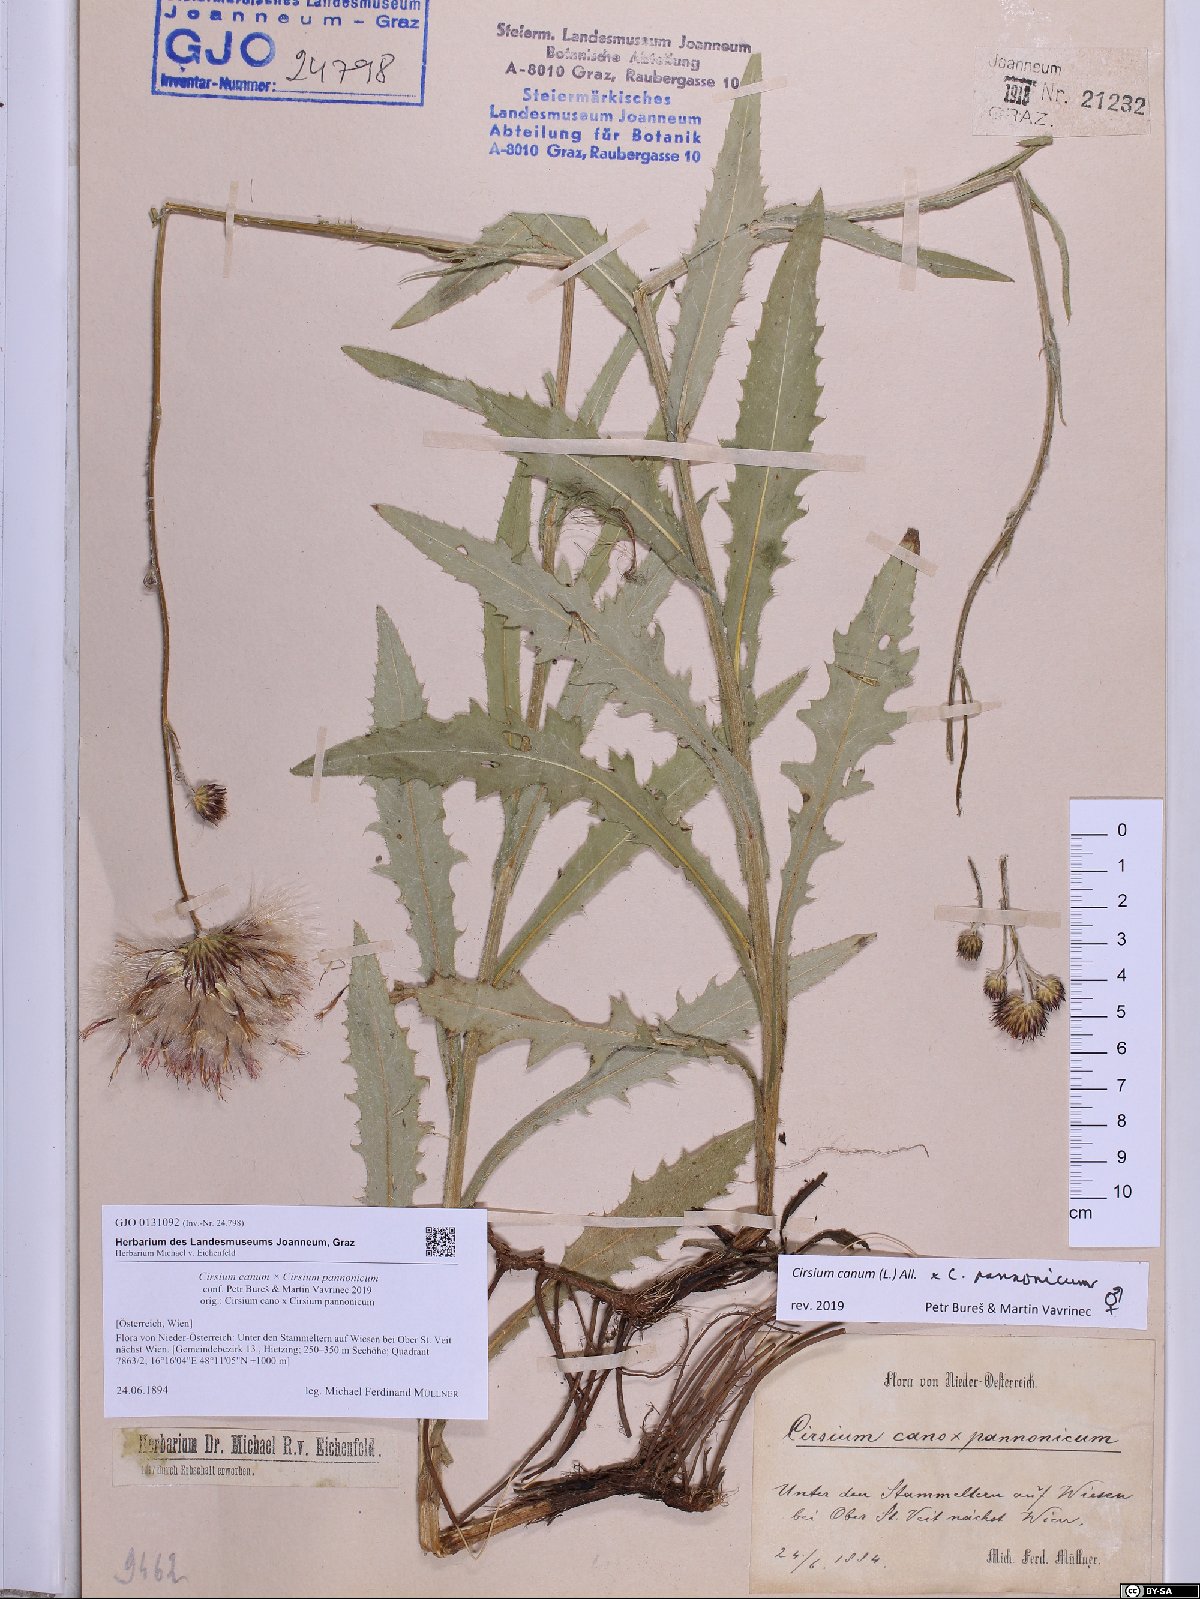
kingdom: Plantae
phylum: Tracheophyta
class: Magnoliopsida
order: Asterales
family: Asteraceae
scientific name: Asteraceae
